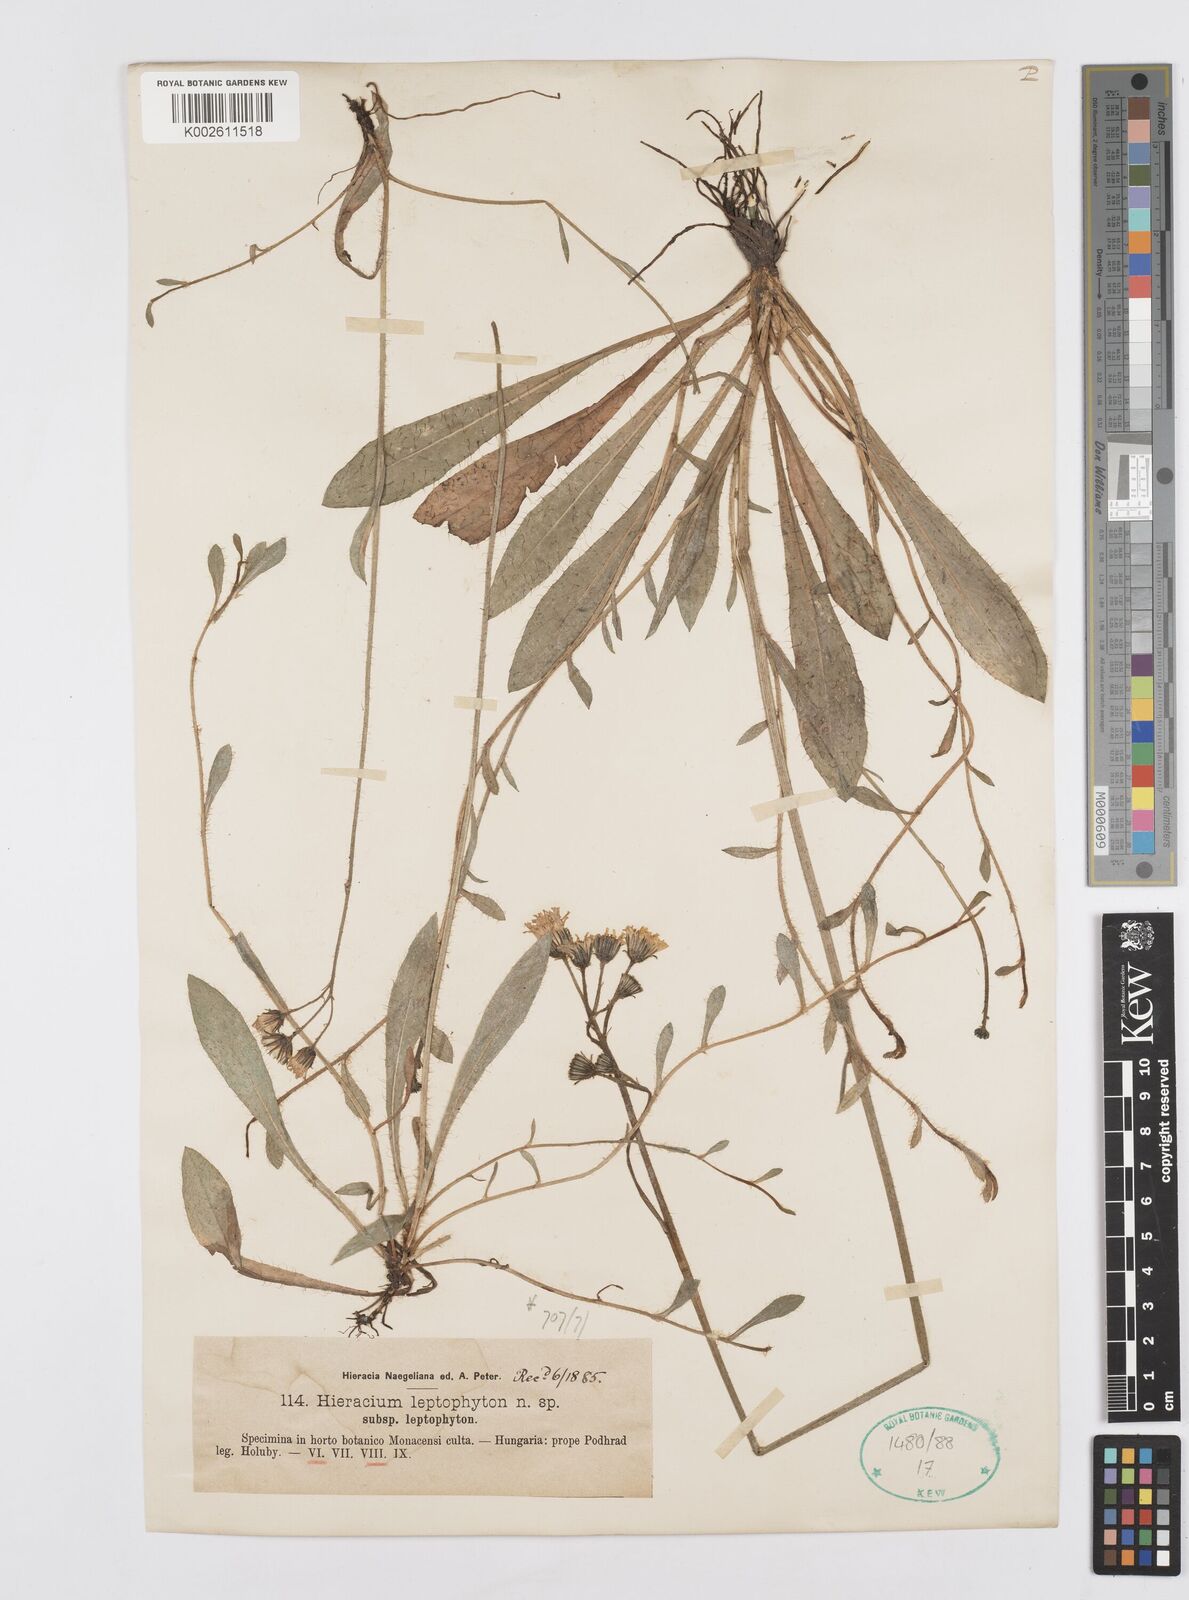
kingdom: Plantae
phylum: Tracheophyta
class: Magnoliopsida
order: Asterales
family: Asteraceae
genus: Pilosella
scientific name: Pilosella leptophyton
